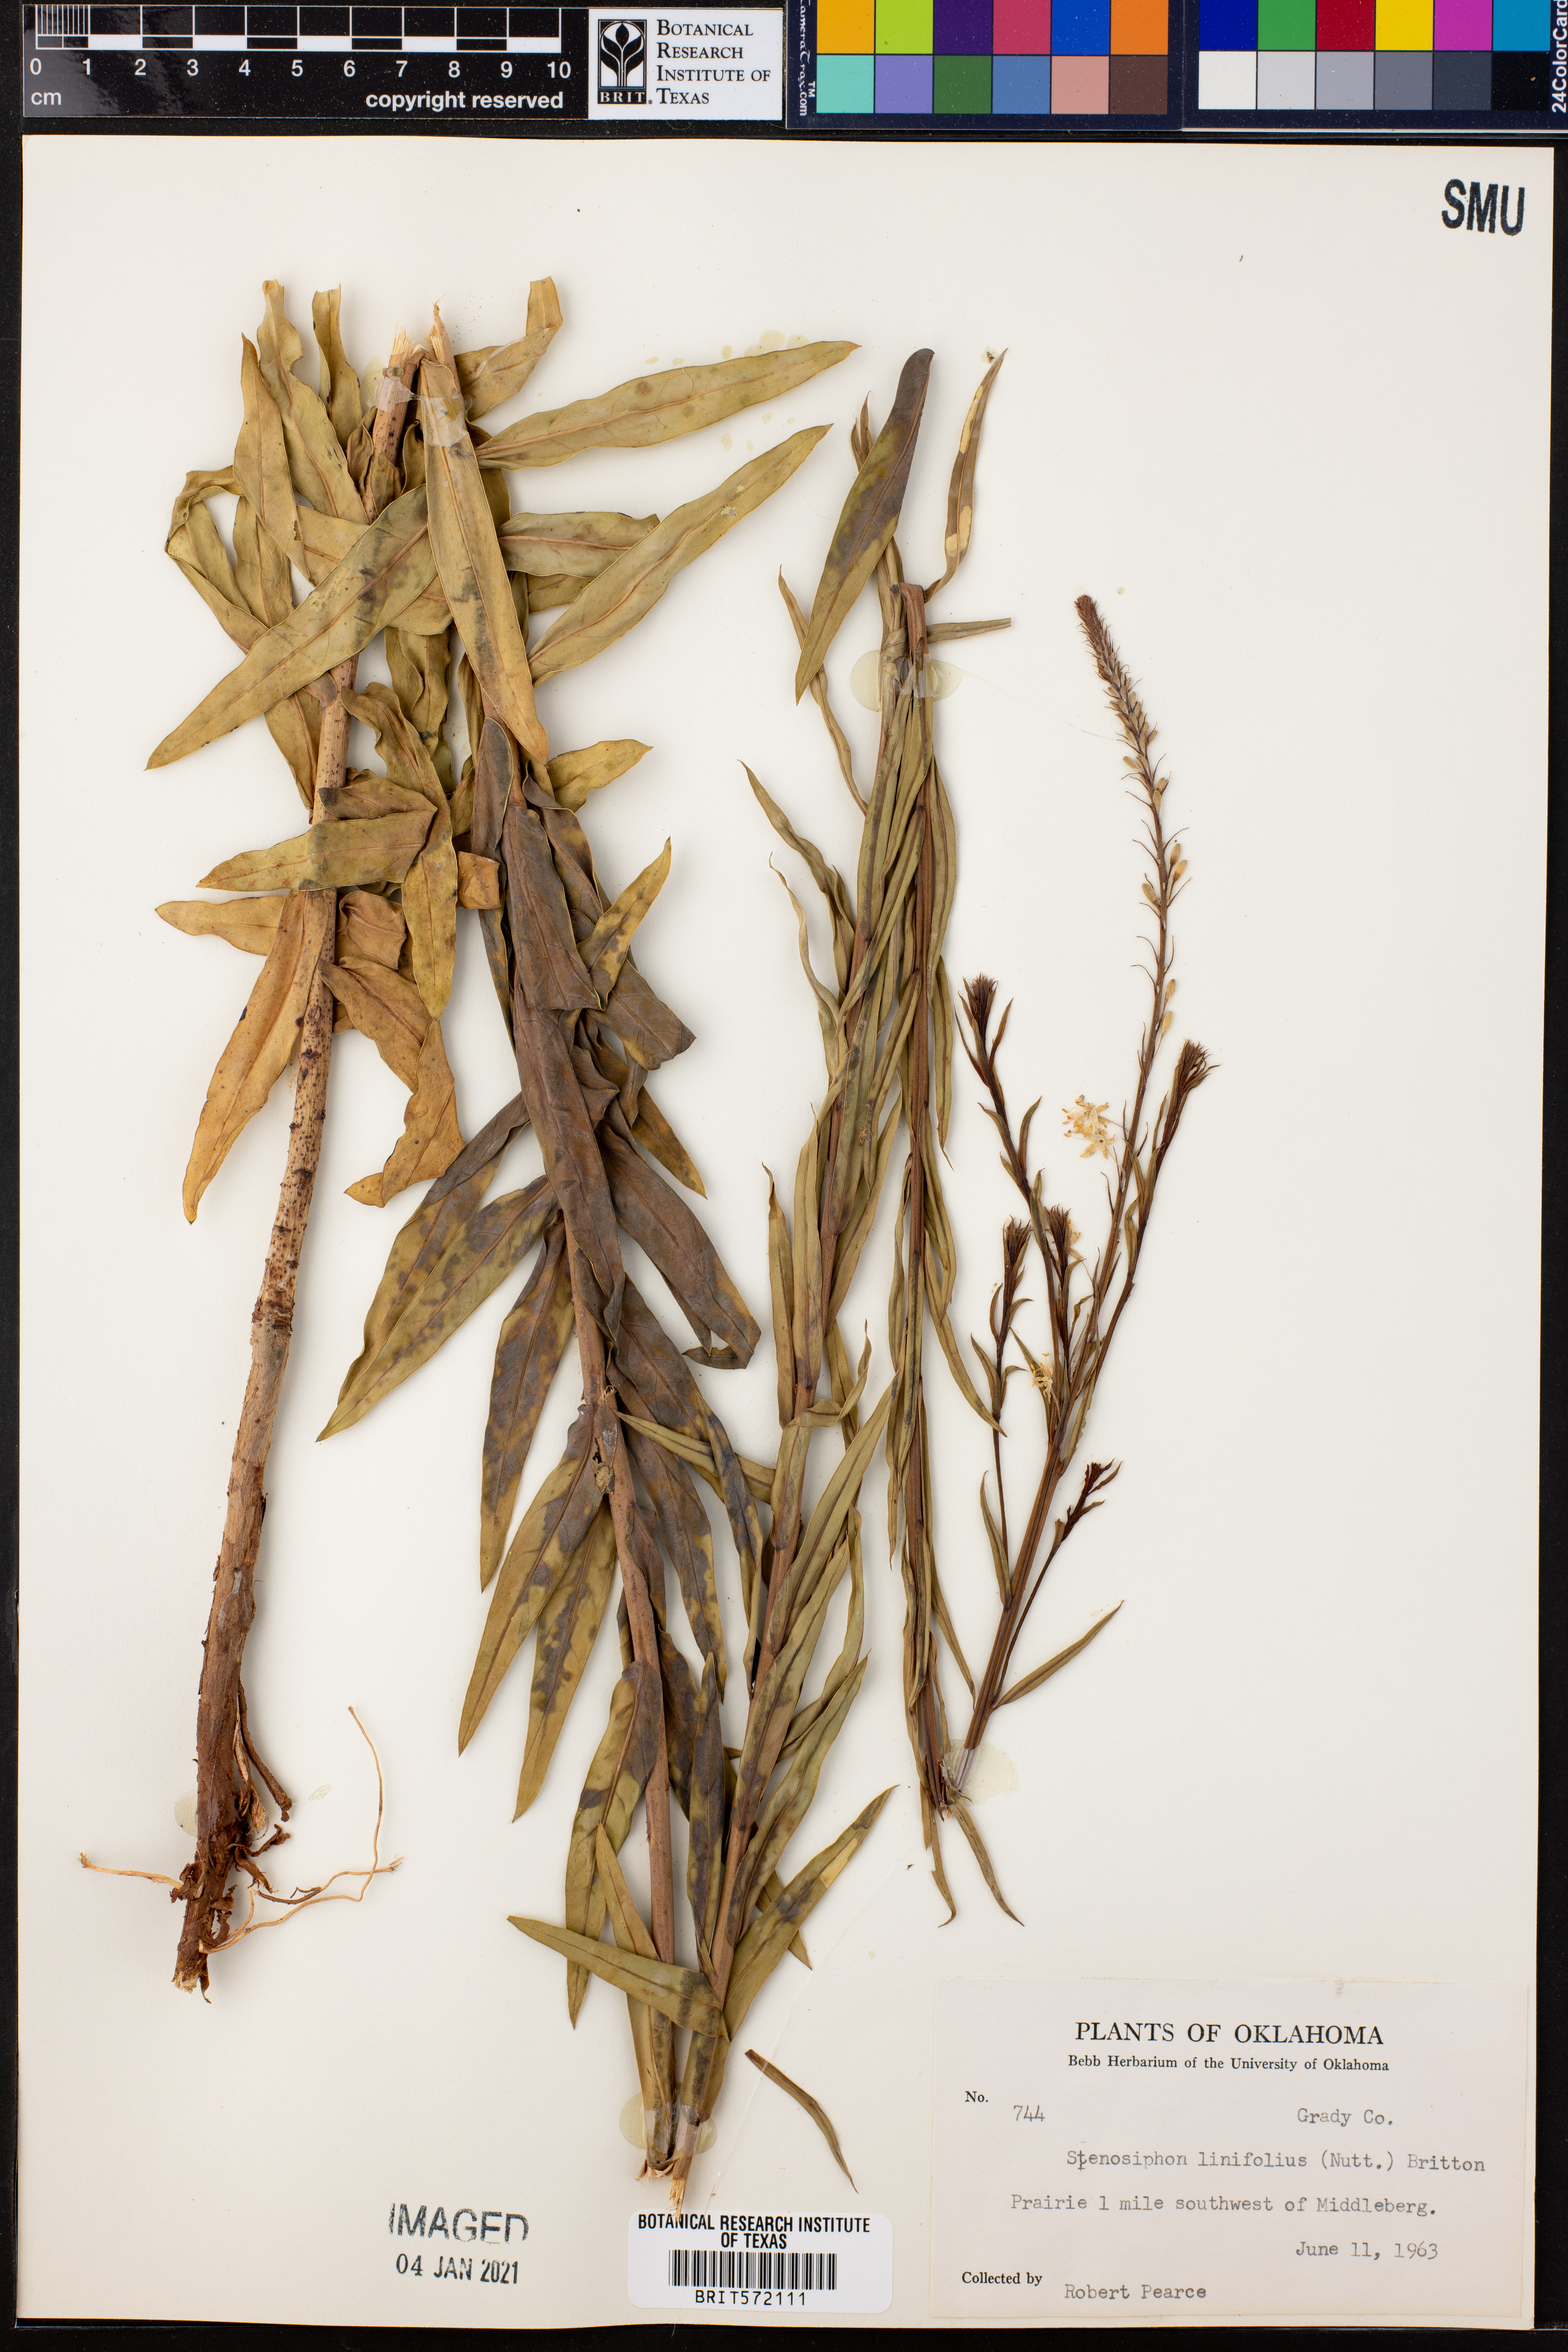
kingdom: Plantae
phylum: Tracheophyta
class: Magnoliopsida
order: Myrtales
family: Onagraceae
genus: Oenothera
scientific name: Oenothera glaucifolia
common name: False gaura
